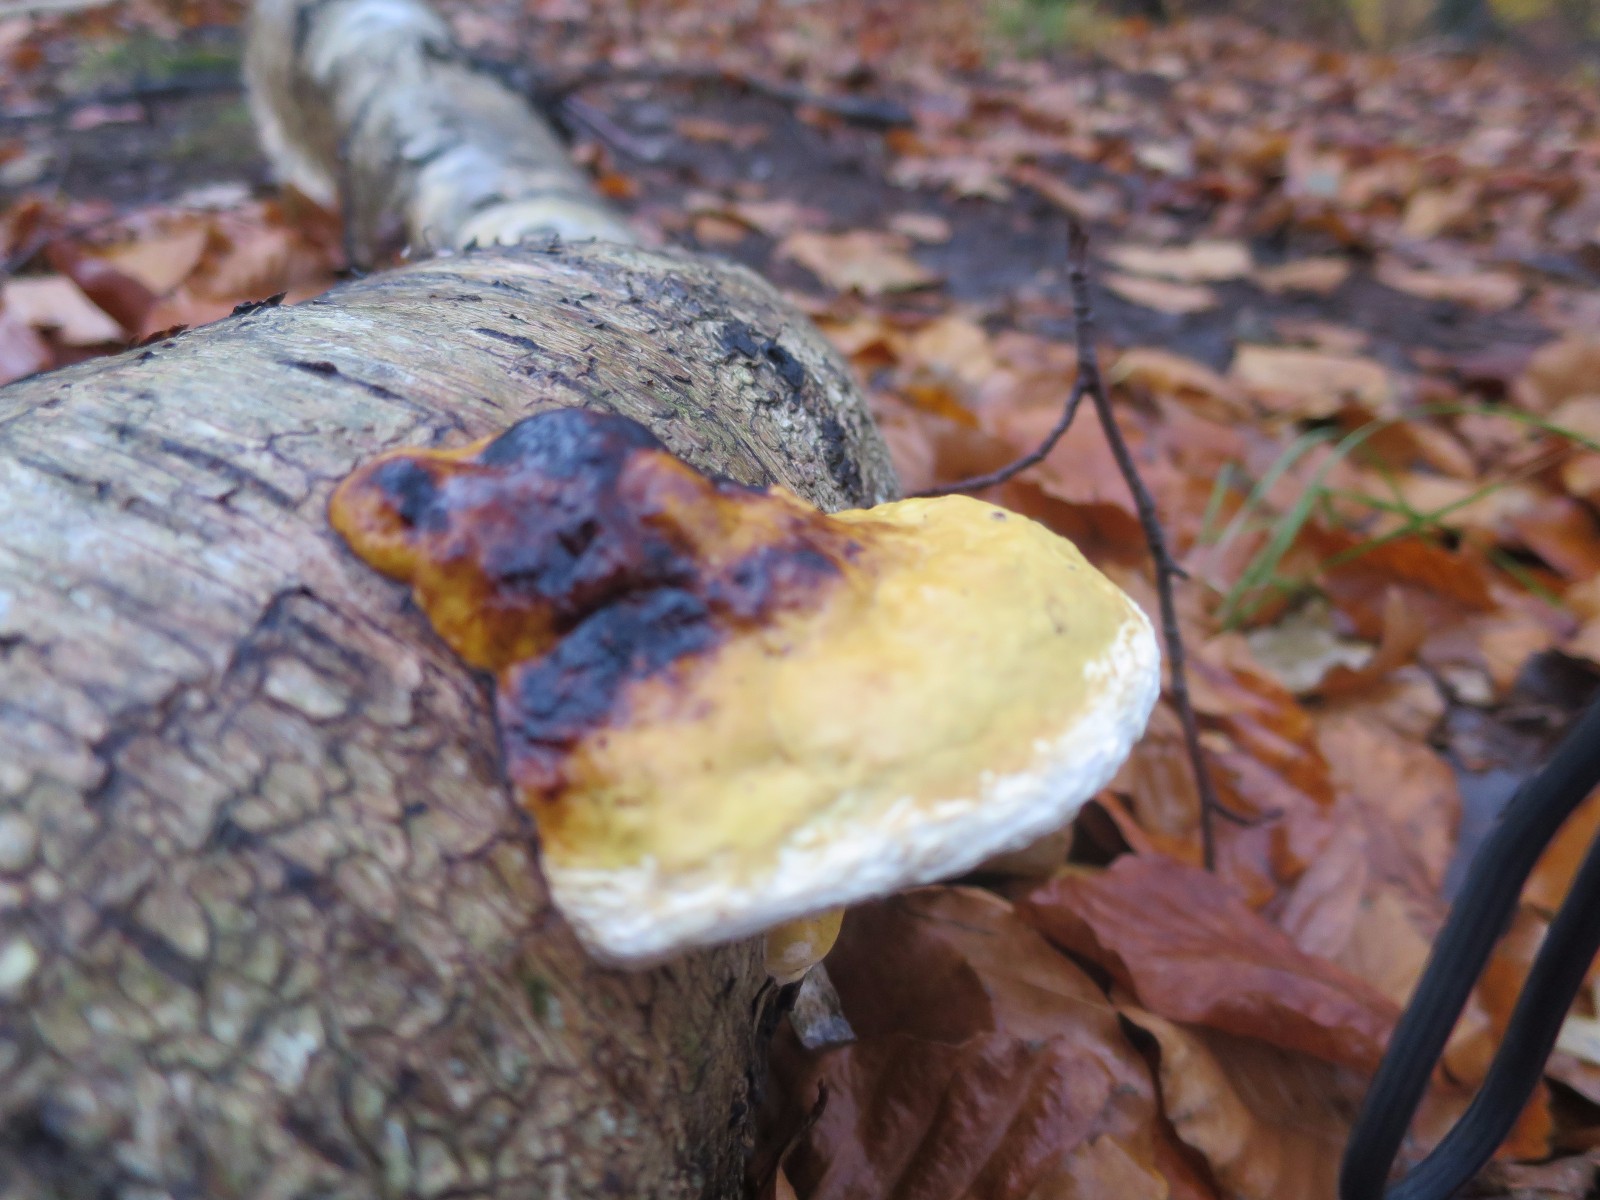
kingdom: Fungi
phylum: Basidiomycota
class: Agaricomycetes
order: Polyporales
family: Fomitopsidaceae
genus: Fomitopsis
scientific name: Fomitopsis pinicola
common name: randbæltet hovporesvamp
